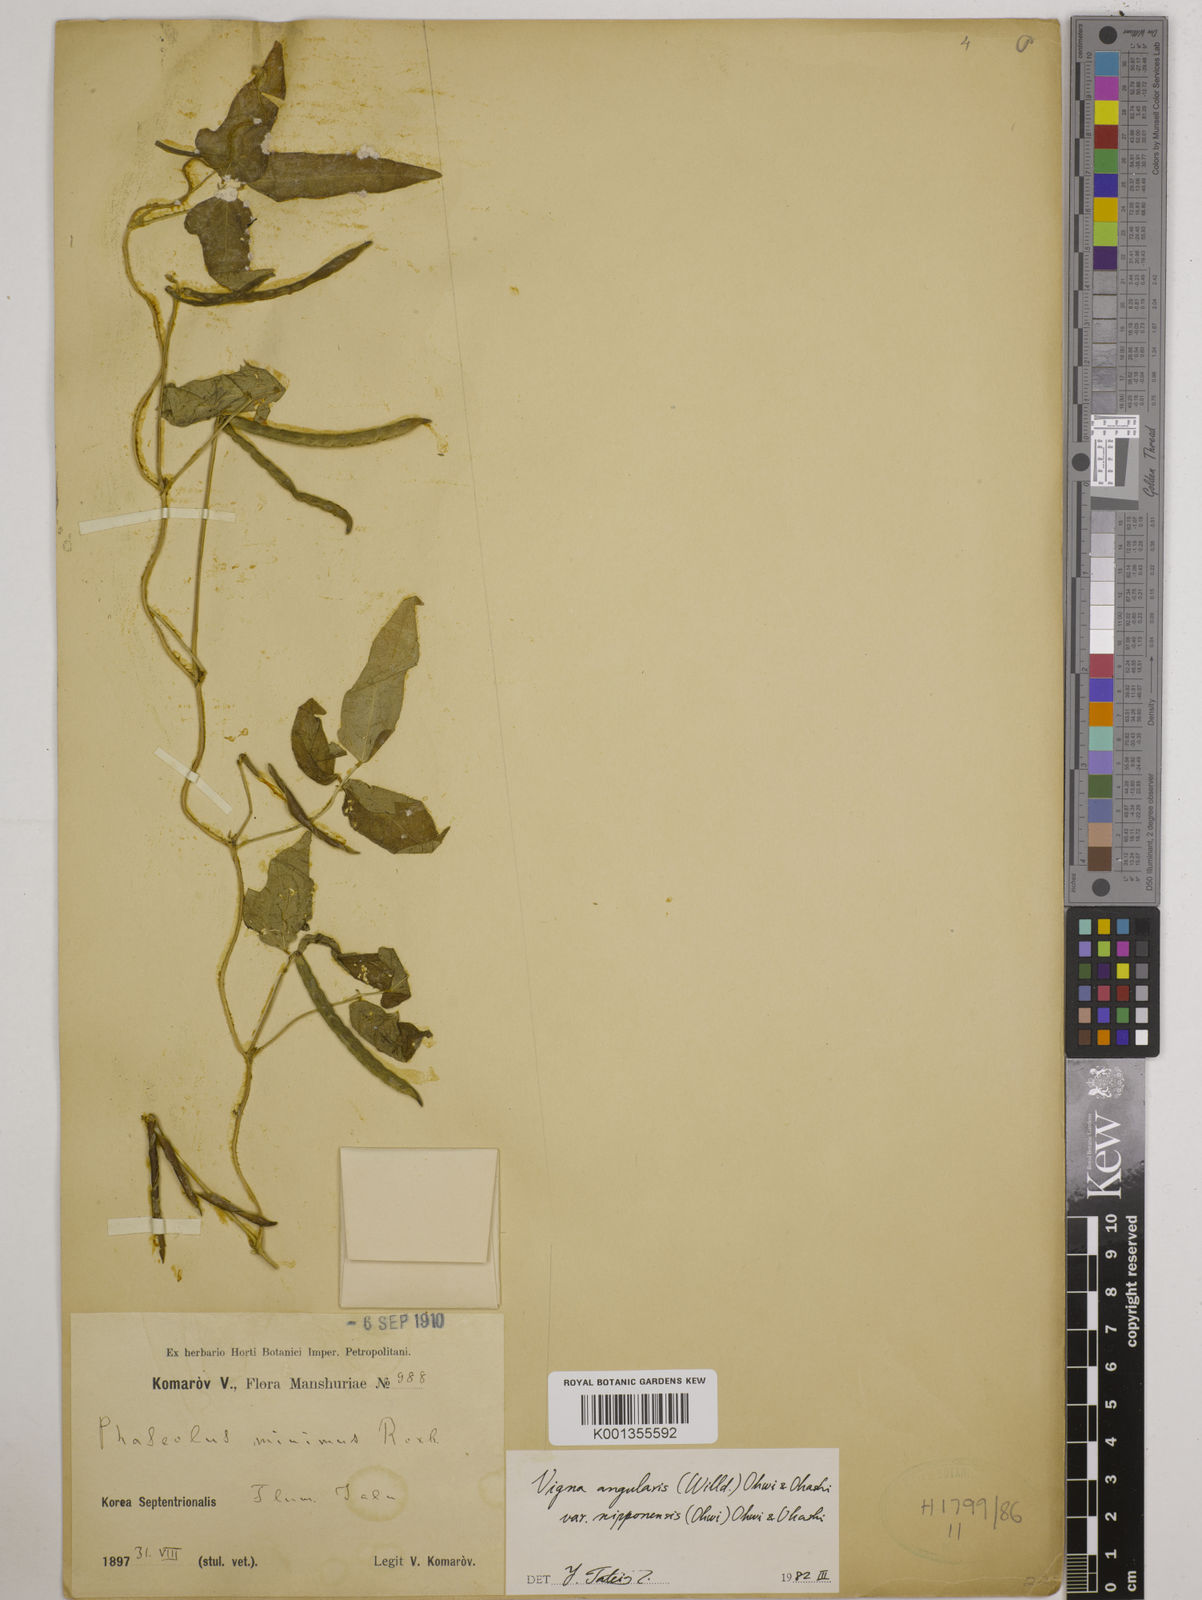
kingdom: Plantae
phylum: Tracheophyta
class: Magnoliopsida
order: Fabales
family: Fabaceae
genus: Vigna
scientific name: Vigna
